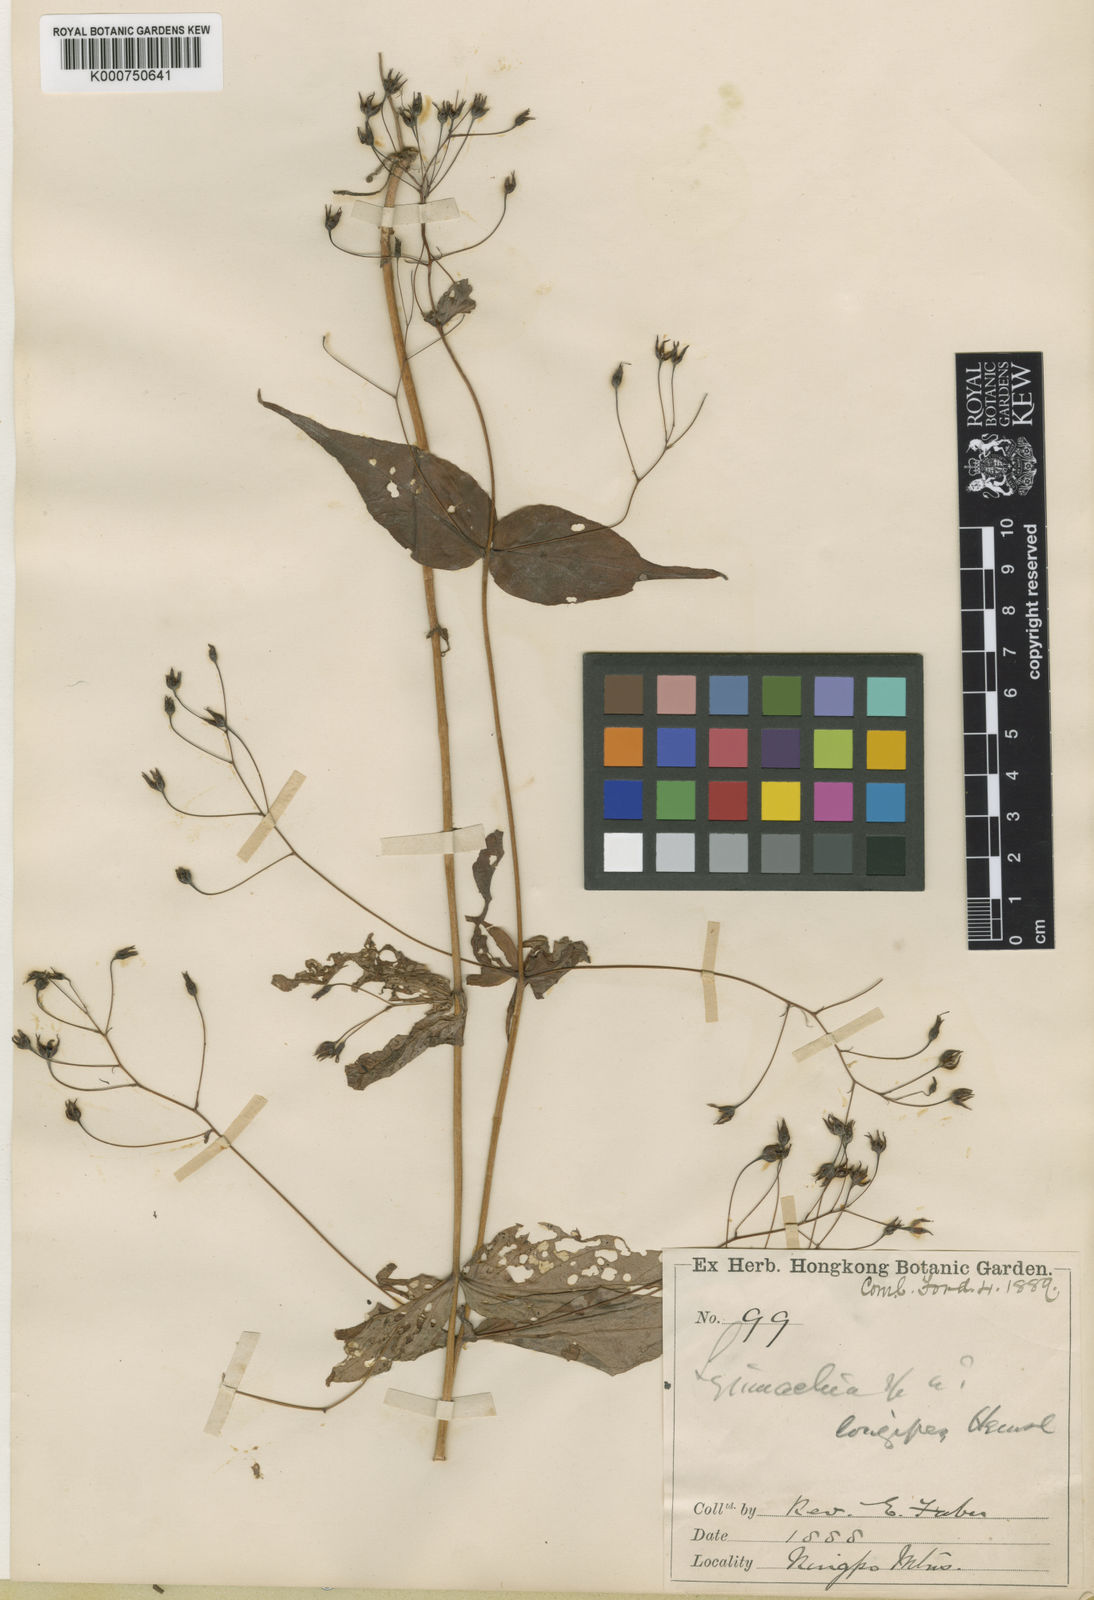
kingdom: Plantae
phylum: Tracheophyta
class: Magnoliopsida
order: Ericales
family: Primulaceae
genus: Lysimachia
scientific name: Lysimachia longipes
